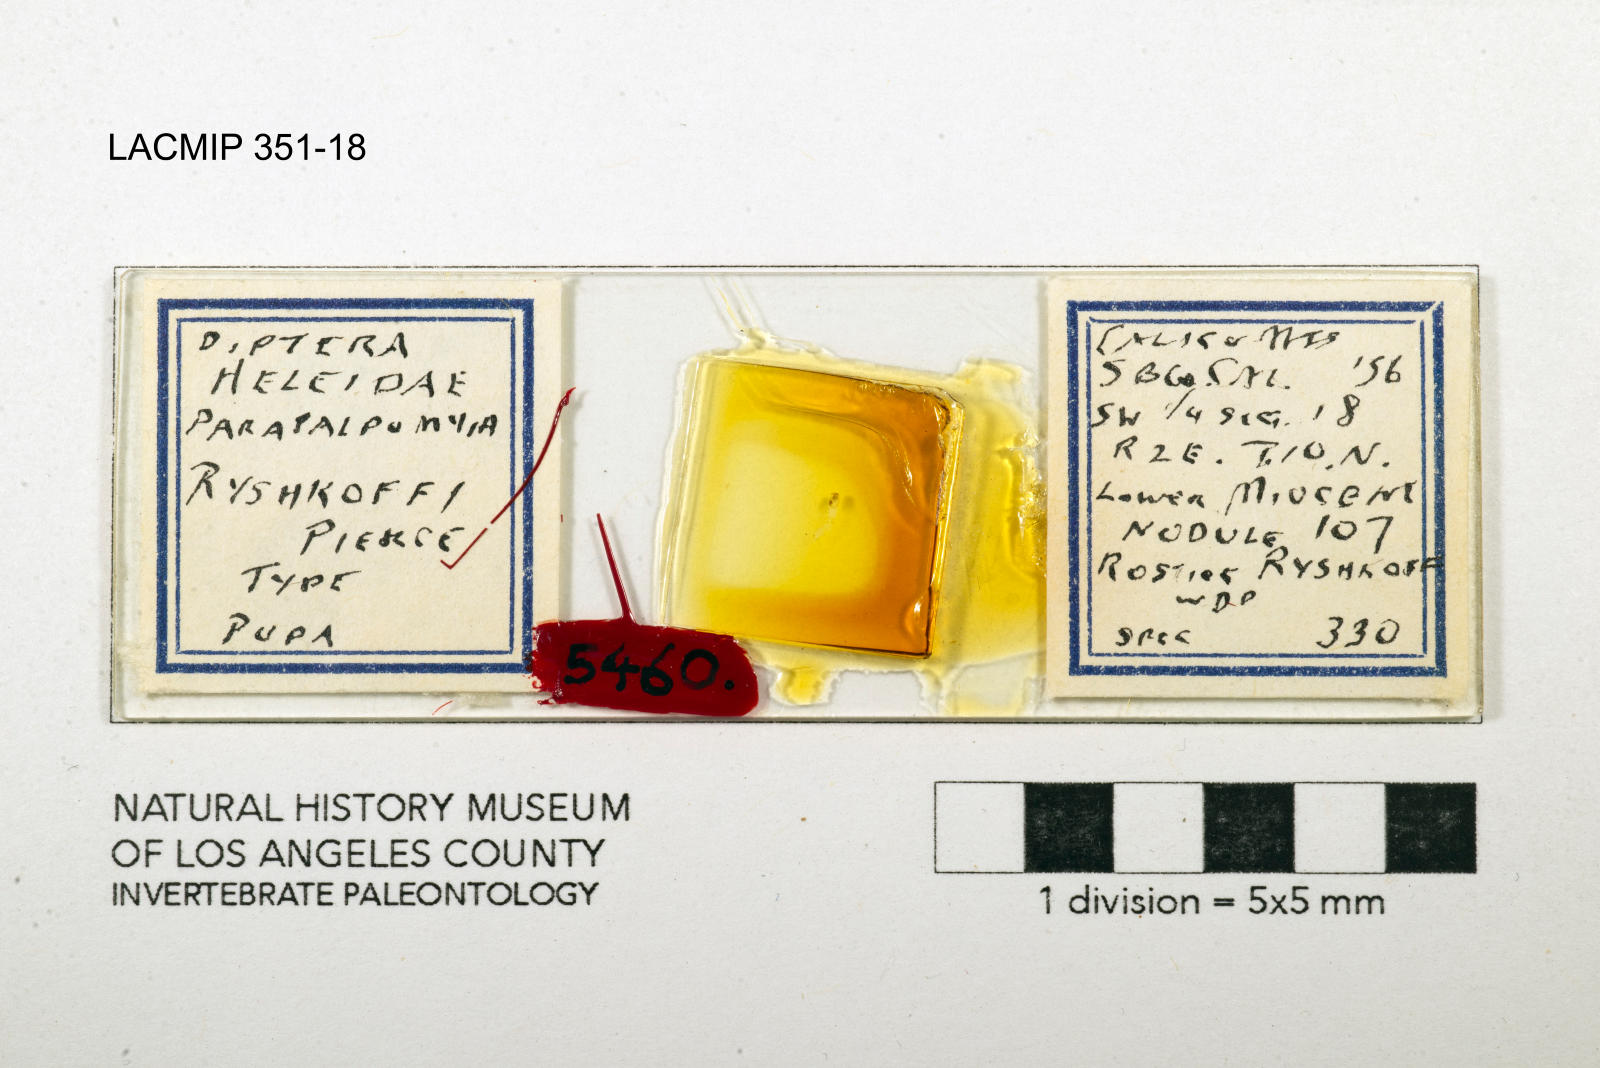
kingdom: Animalia
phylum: Arthropoda
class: Insecta
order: Diptera
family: Ceratopogonidae
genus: Palpomyia
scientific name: Palpomyia ryshkoffi
